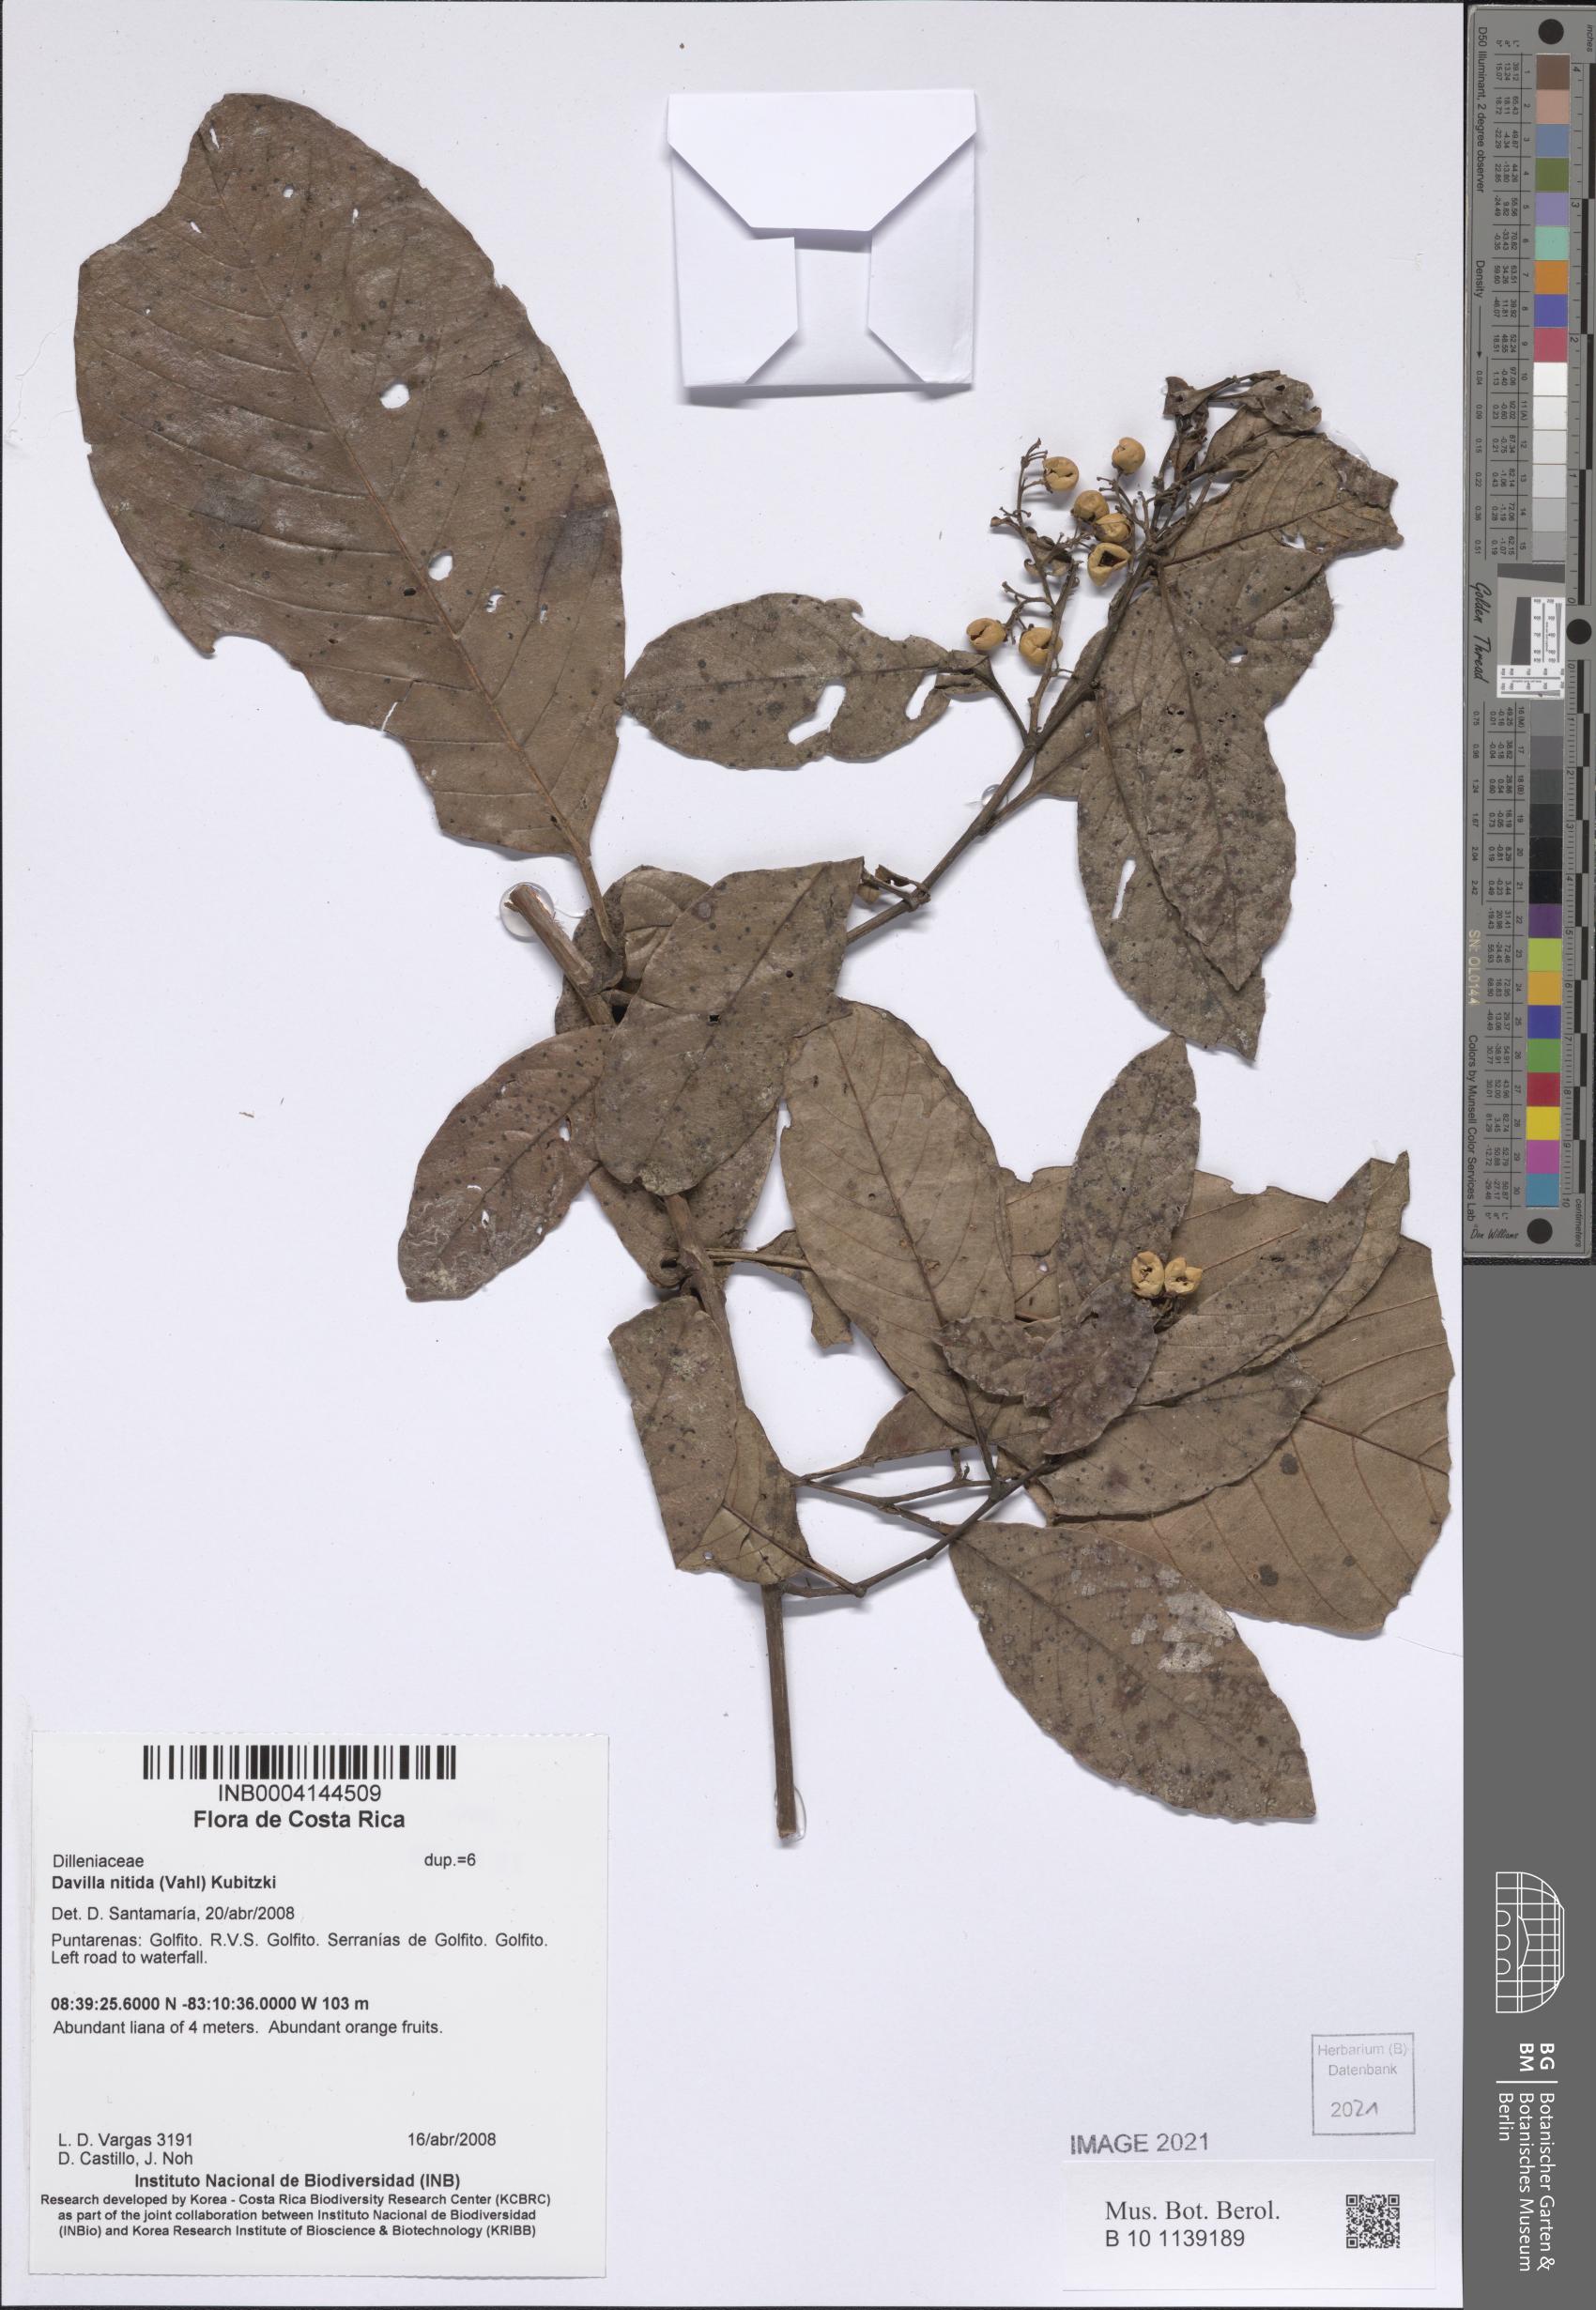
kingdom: Plantae
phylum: Tracheophyta
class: Magnoliopsida
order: Dilleniales
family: Dilleniaceae
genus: Davilla
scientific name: Davilla nitida
